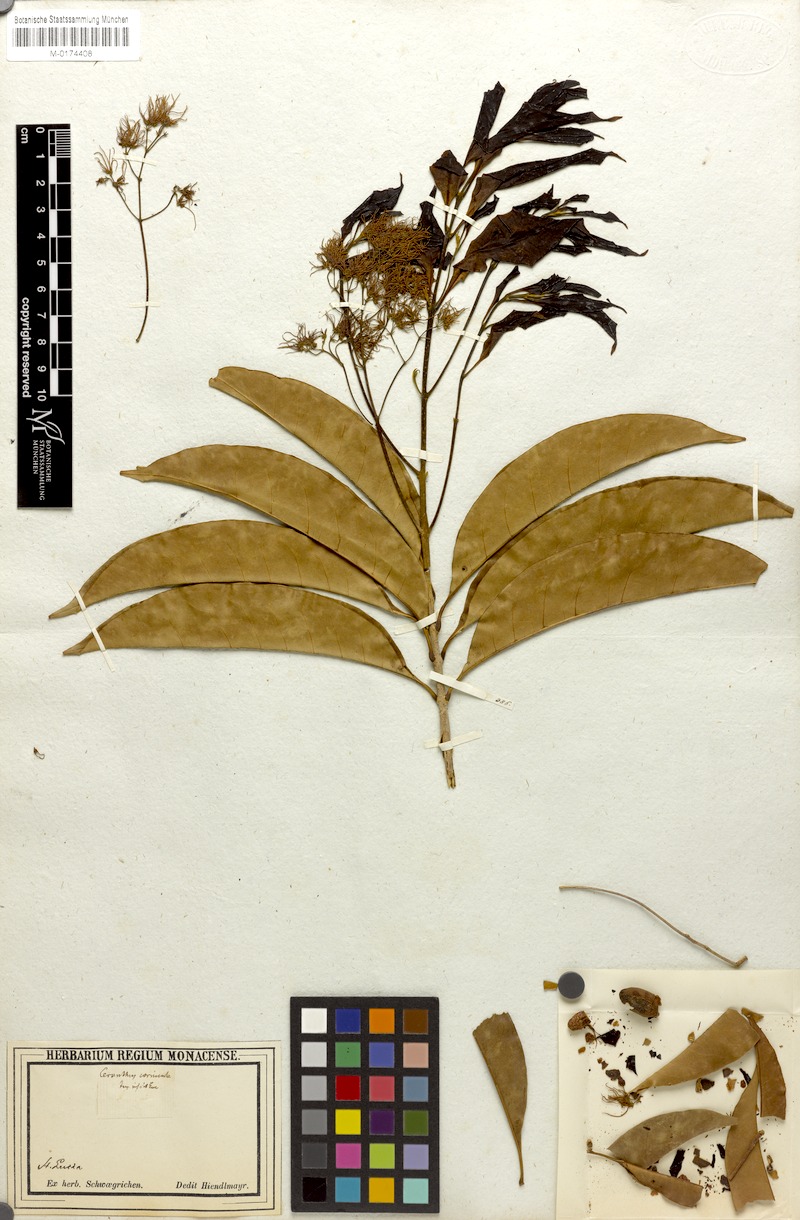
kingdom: Plantae
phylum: Tracheophyta
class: Magnoliopsida
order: Lamiales
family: Oleaceae
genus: Chionanthus
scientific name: Chionanthus compactus
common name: Bridgo tree
